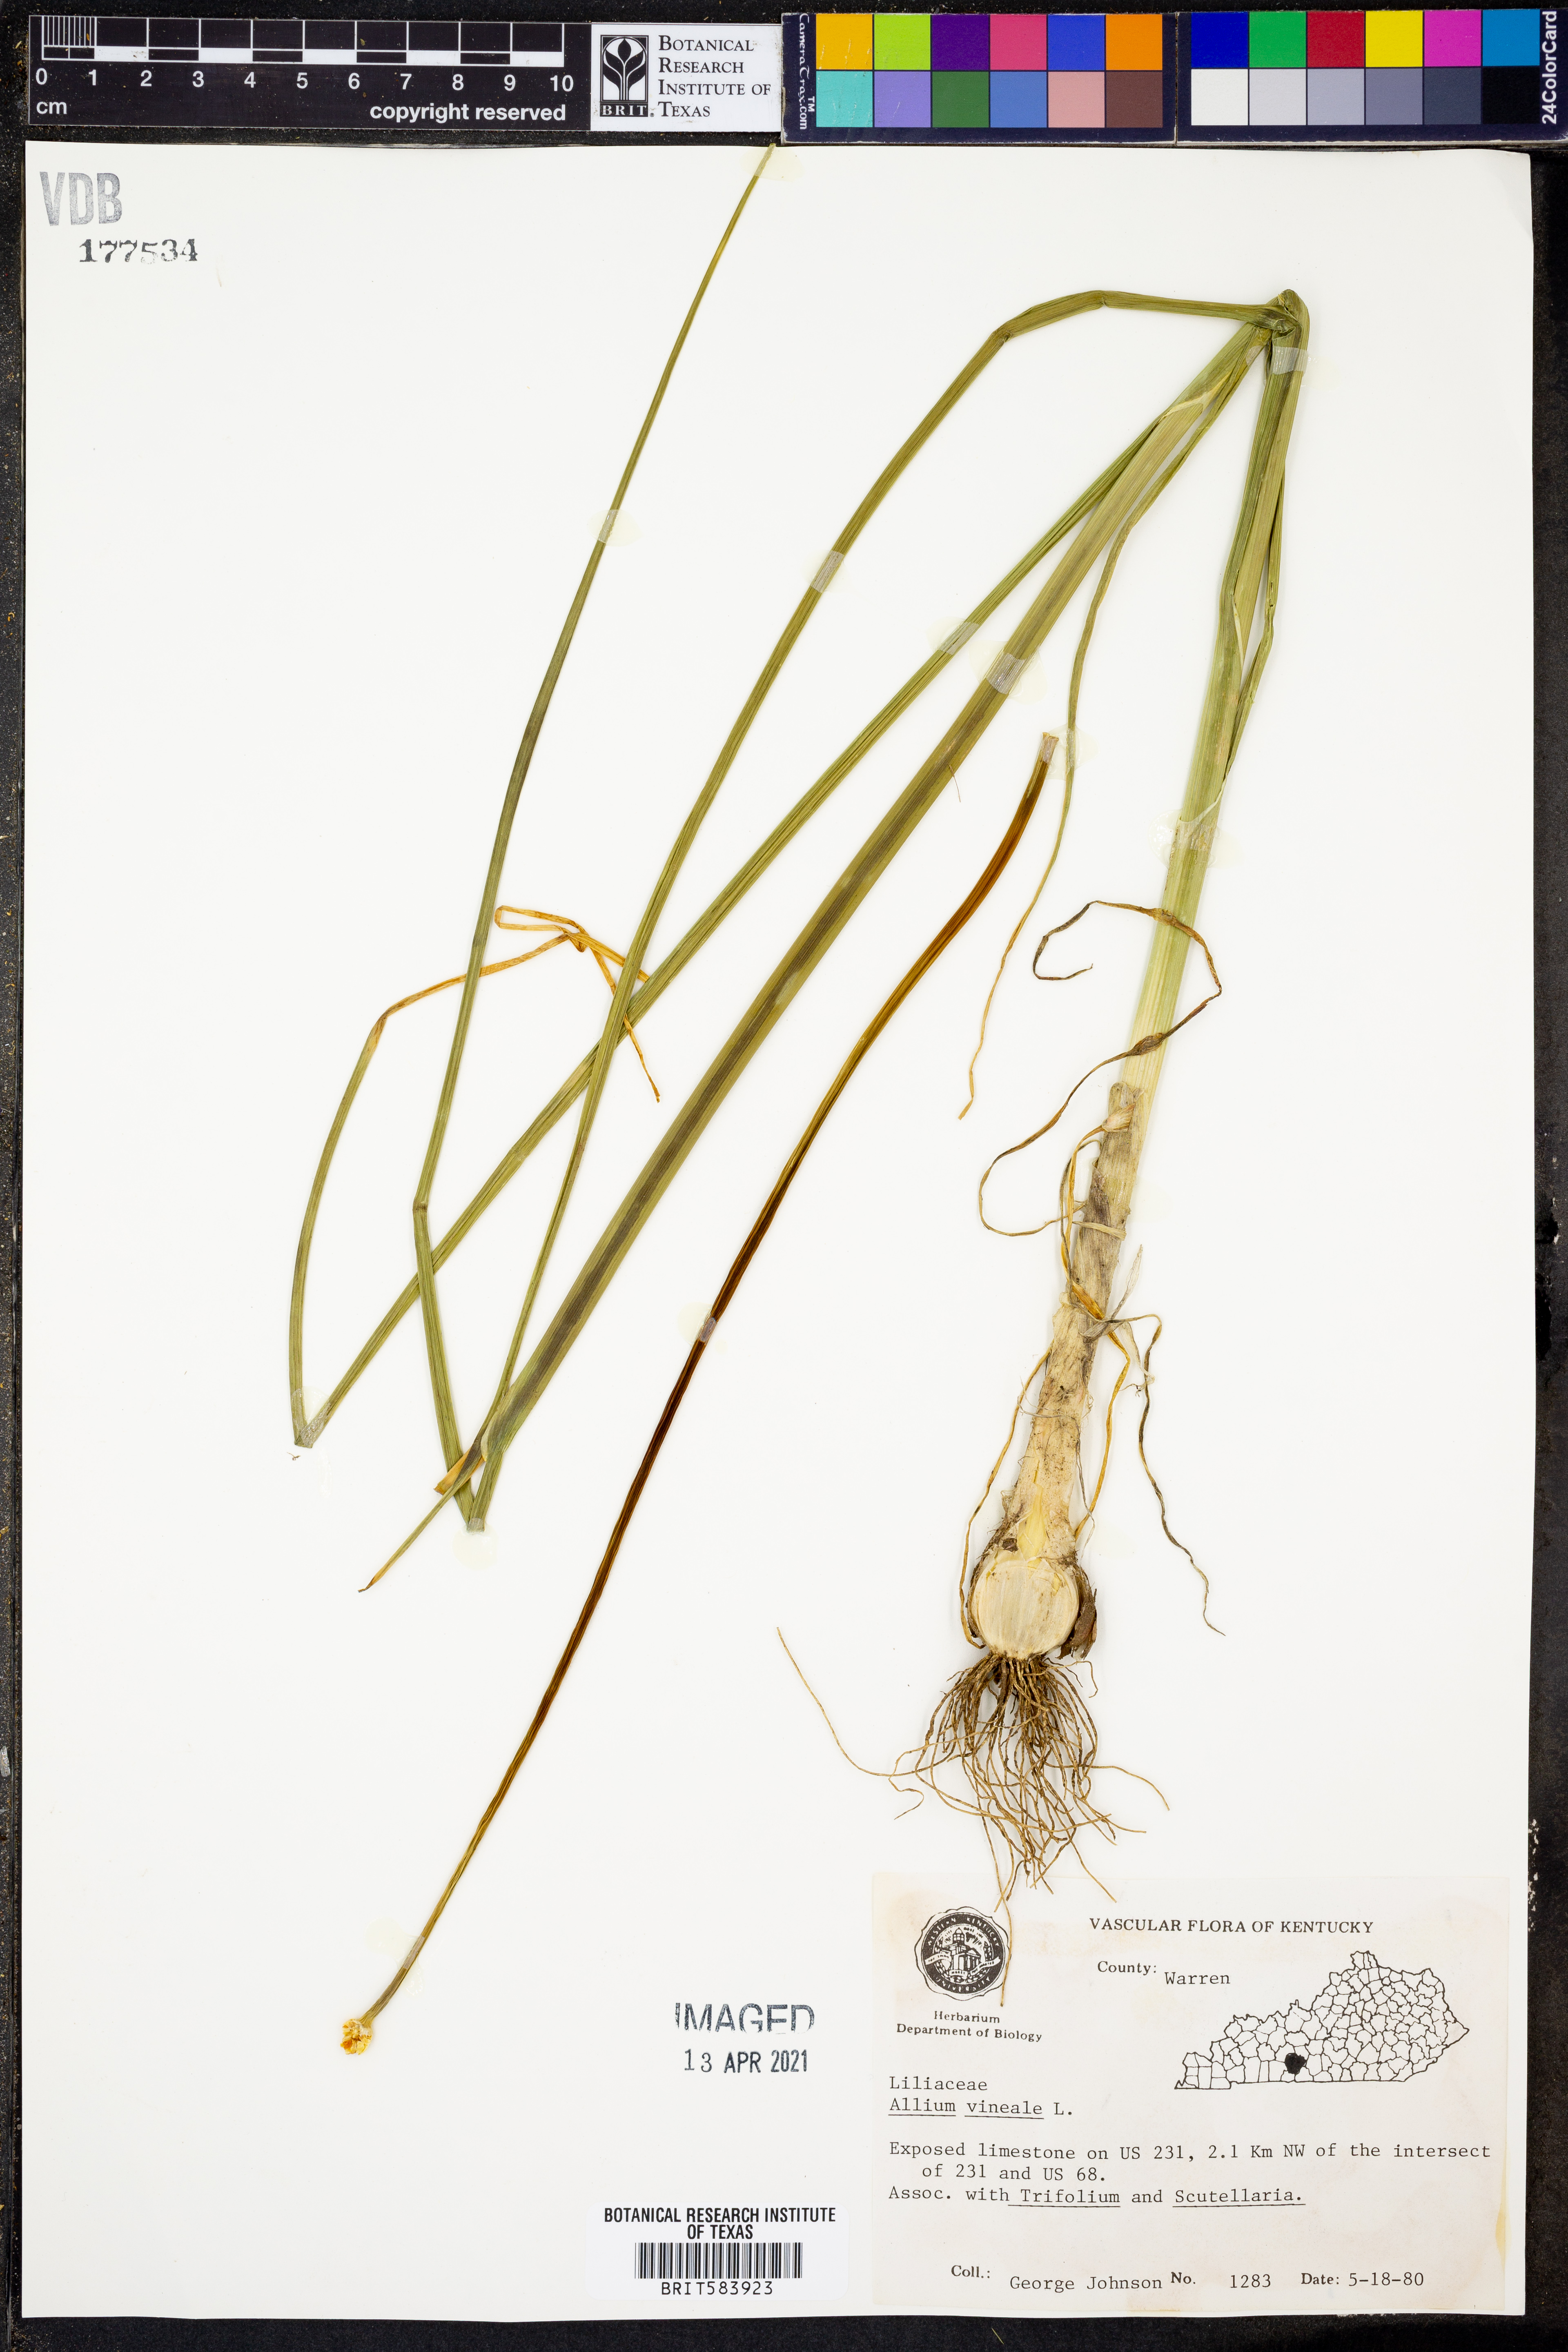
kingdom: Plantae
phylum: Tracheophyta
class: Liliopsida
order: Asparagales
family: Amaryllidaceae
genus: Allium
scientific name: Allium vineale
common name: Crow garlic
